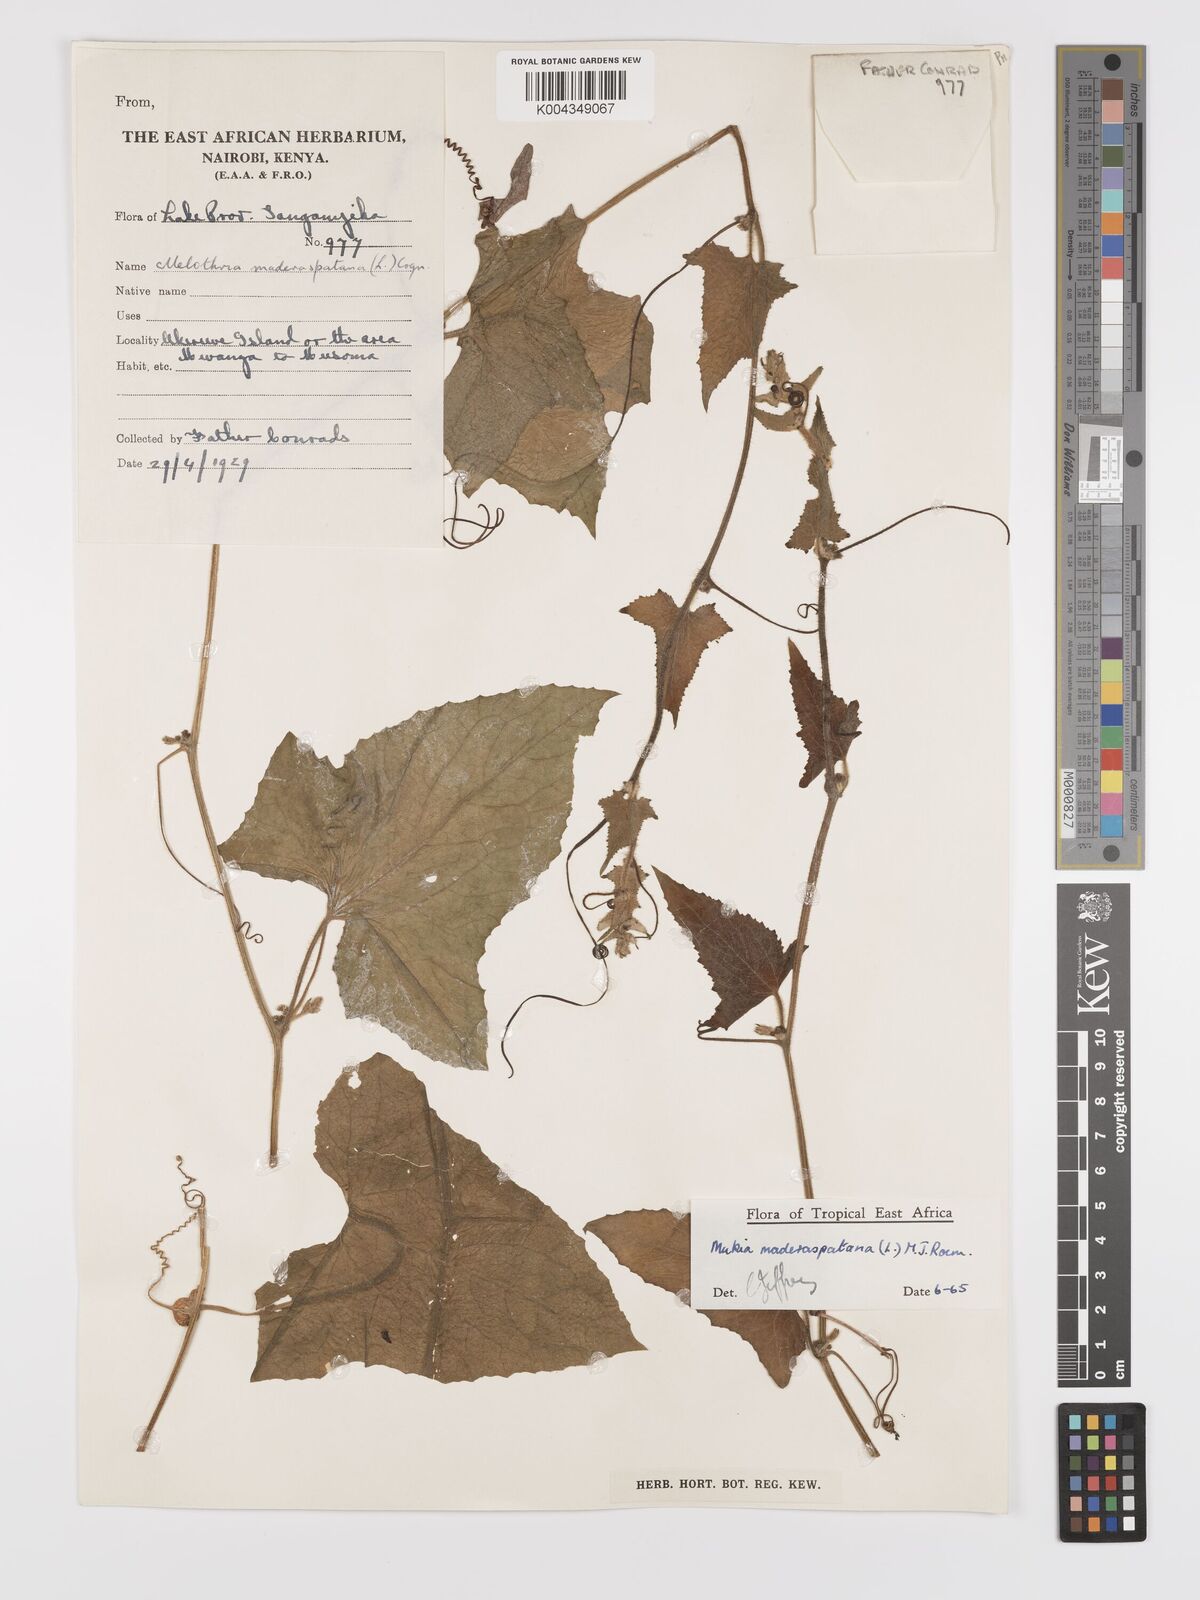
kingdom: Plantae
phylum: Tracheophyta
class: Magnoliopsida
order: Cucurbitales
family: Cucurbitaceae
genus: Cucumis
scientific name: Cucumis maderaspatanus
